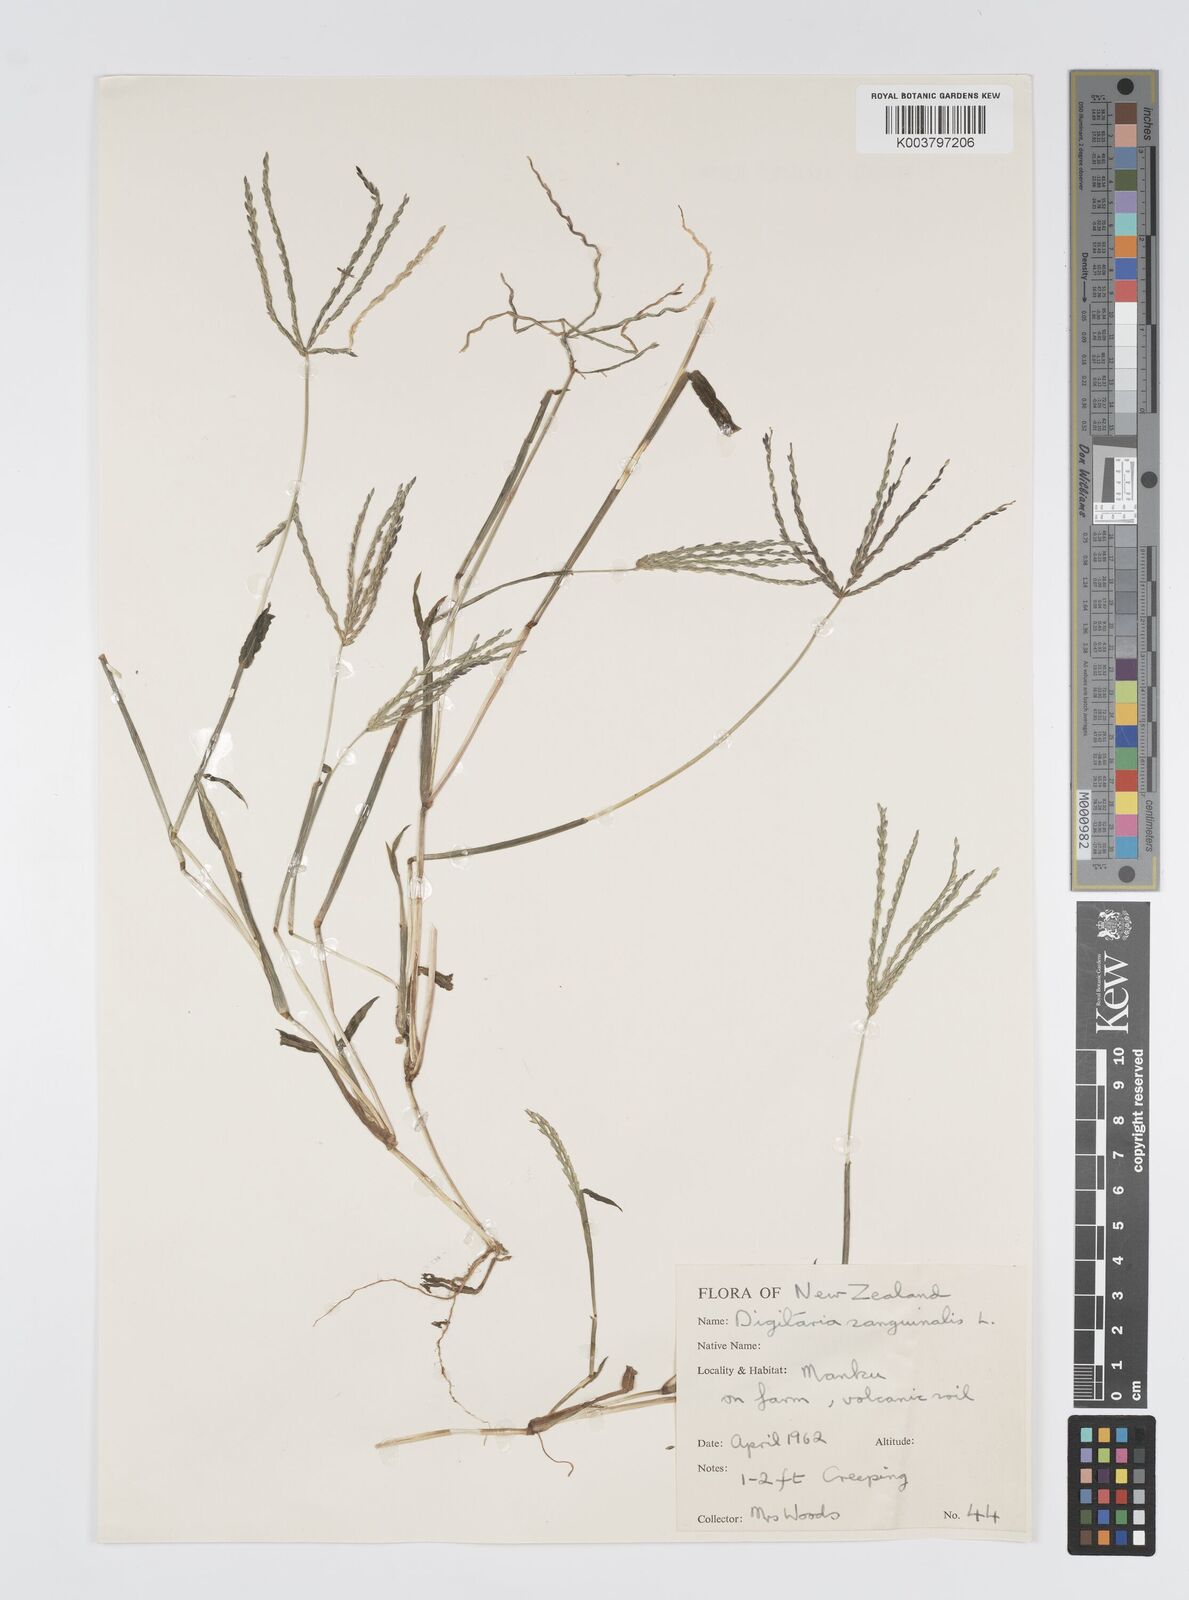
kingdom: Plantae
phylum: Tracheophyta
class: Liliopsida
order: Poales
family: Poaceae
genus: Digitaria
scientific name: Digitaria sanguinalis
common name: Hairy crabgrass
